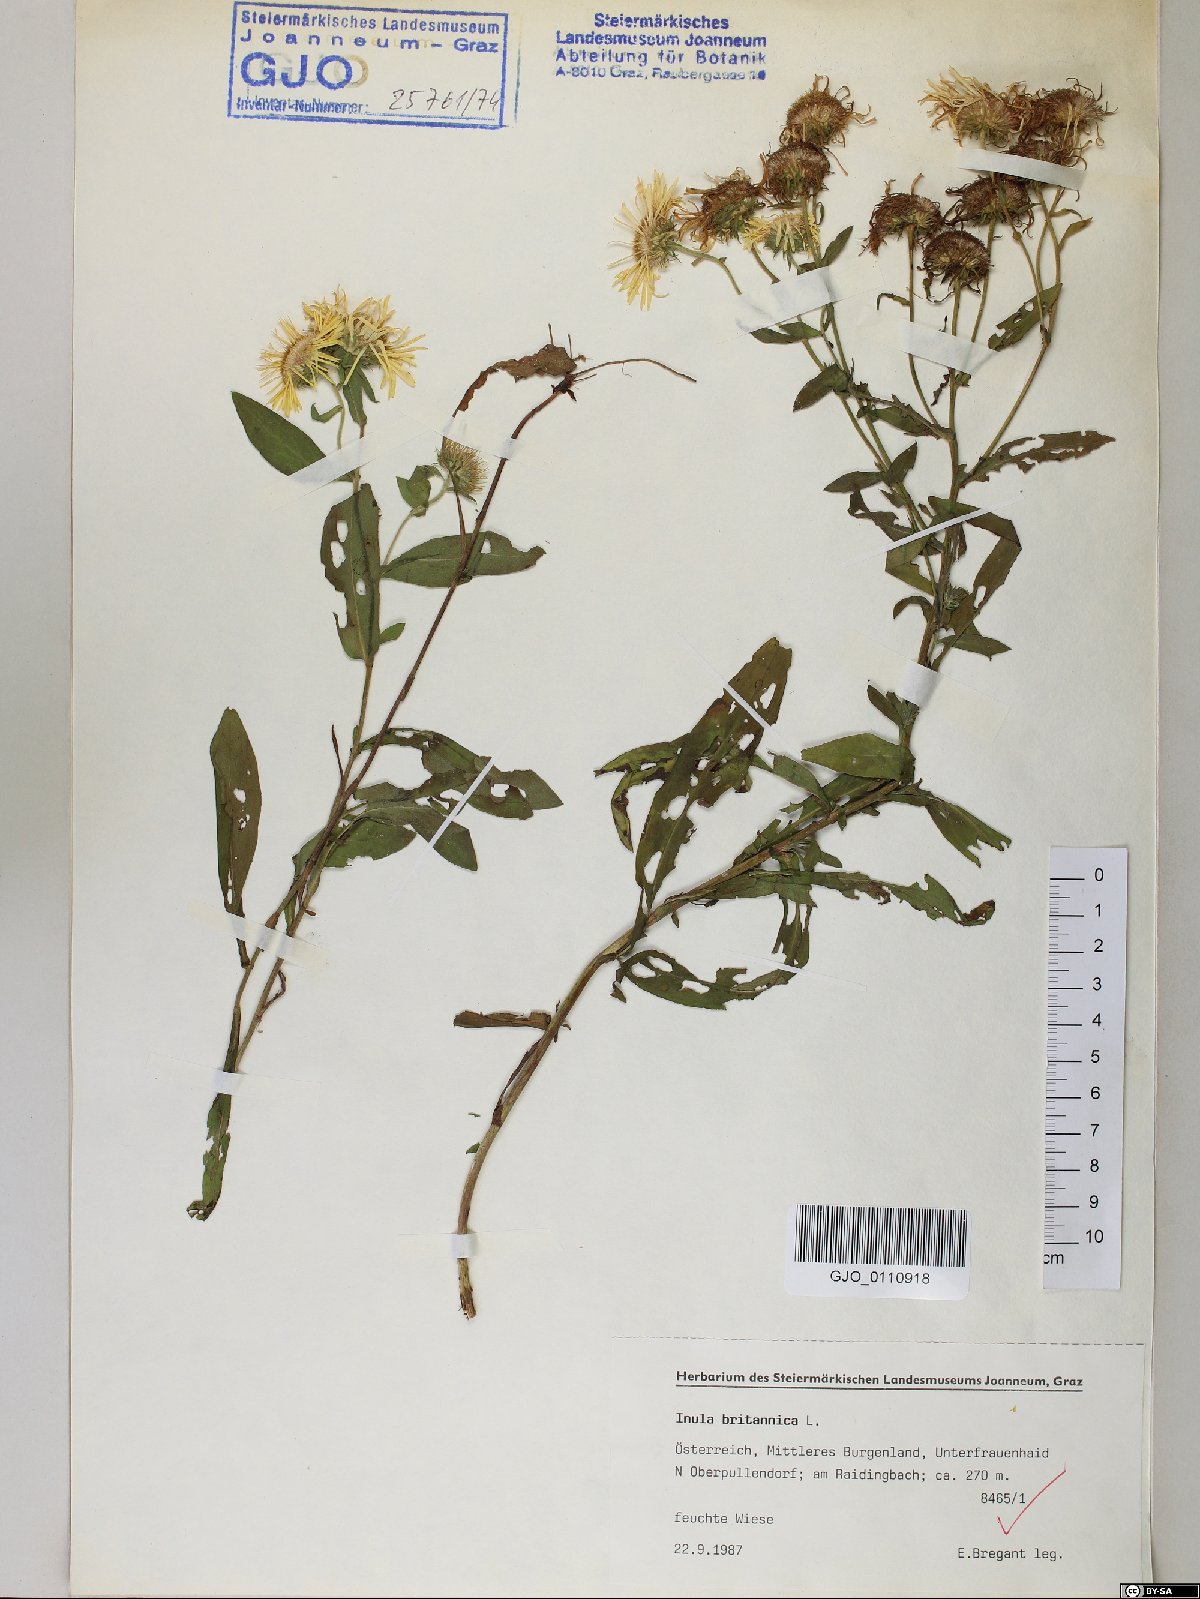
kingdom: Plantae
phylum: Tracheophyta
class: Magnoliopsida
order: Asterales
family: Asteraceae
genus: Pentanema
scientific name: Pentanema britannicum
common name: British elecampane
